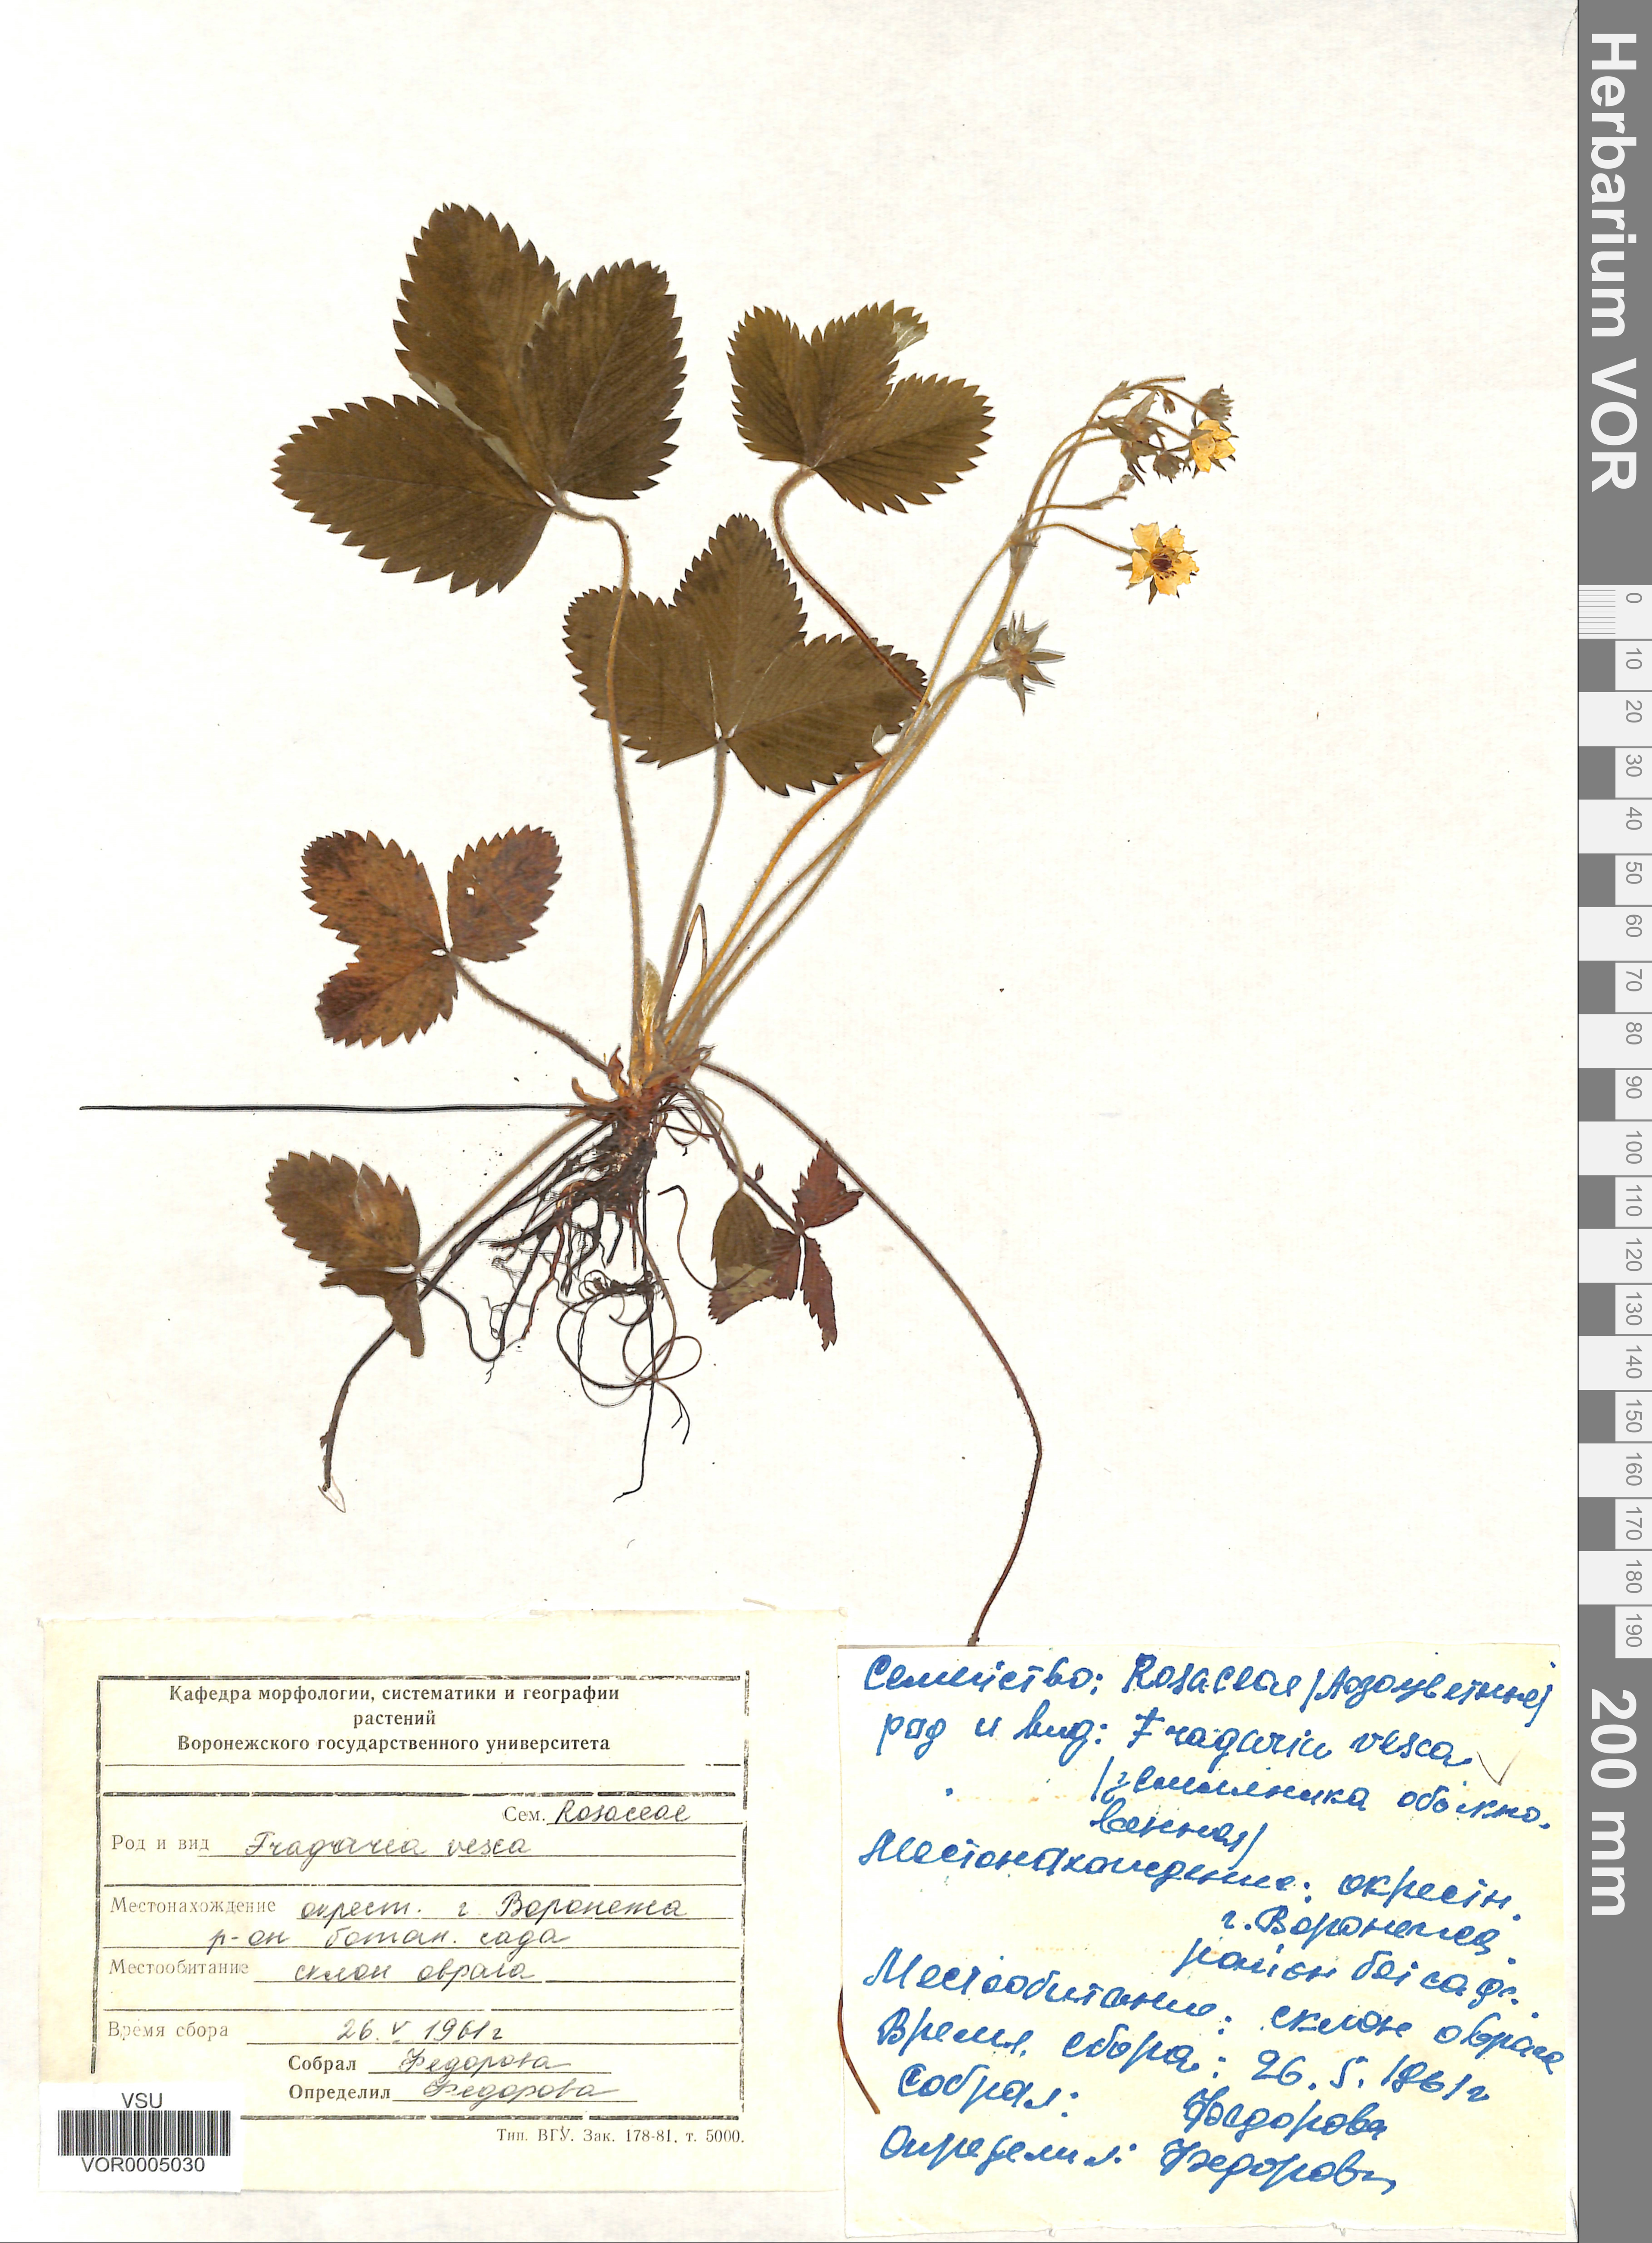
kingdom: Plantae
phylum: Tracheophyta
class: Magnoliopsida
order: Rosales
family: Rosaceae
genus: Fragaria
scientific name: Fragaria vesca
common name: Wild strawberry
